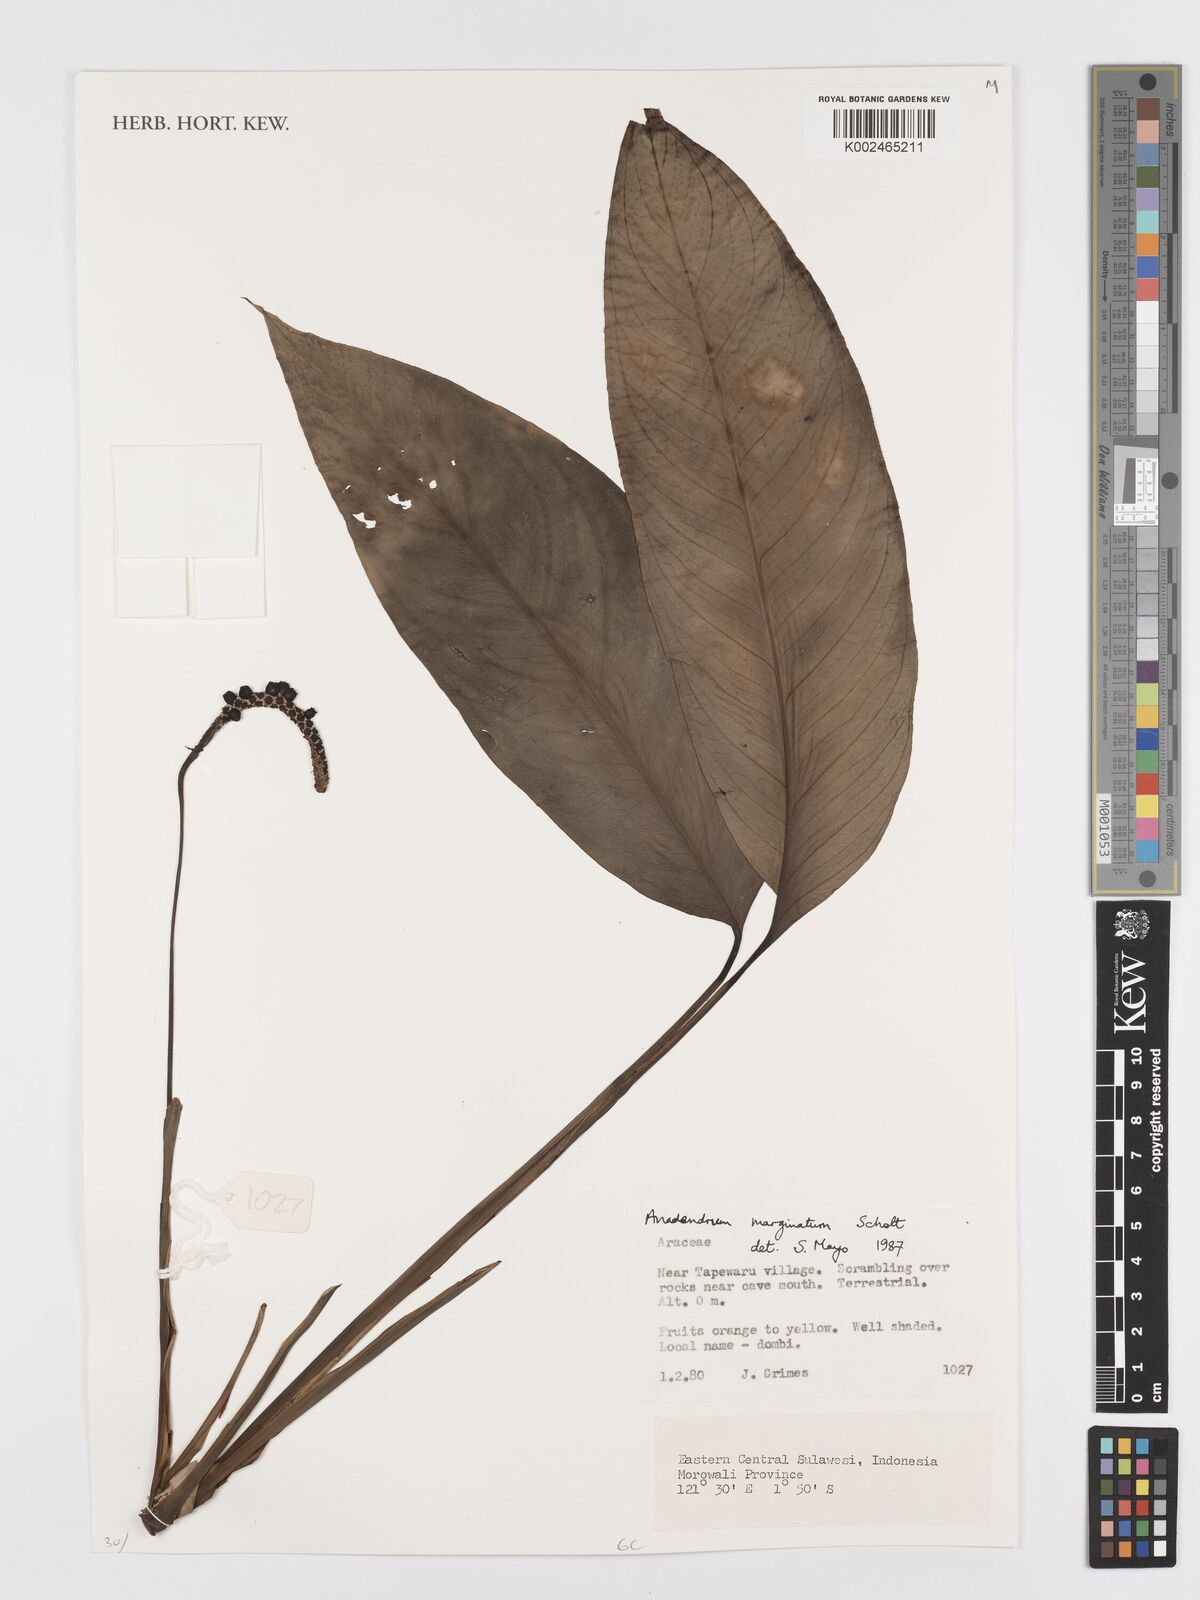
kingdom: Plantae
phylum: Tracheophyta
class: Liliopsida
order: Alismatales
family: Araceae
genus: Anadendrum
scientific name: Anadendrum marginatum
